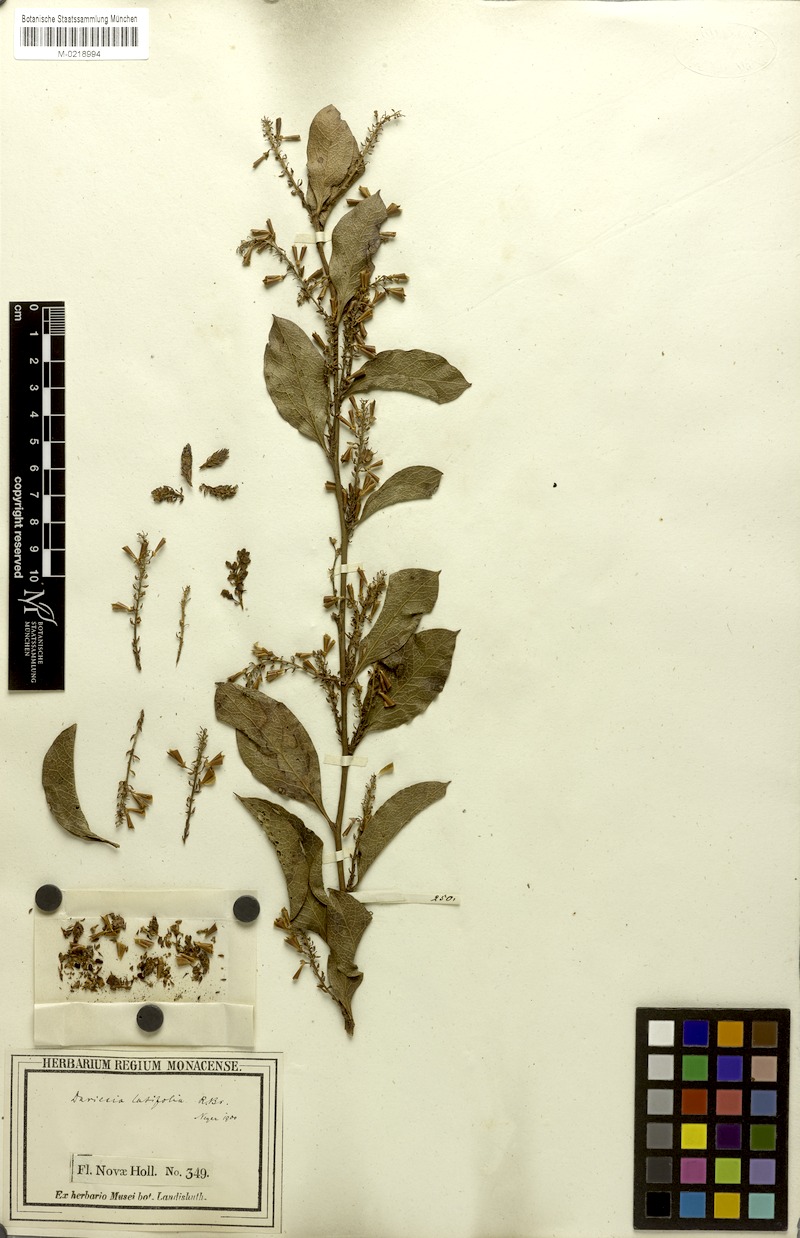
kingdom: Plantae
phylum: Tracheophyta
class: Magnoliopsida
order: Fabales
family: Fabaceae
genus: Daviesia
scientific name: Daviesia latifolia
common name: Hop bitter-pea
